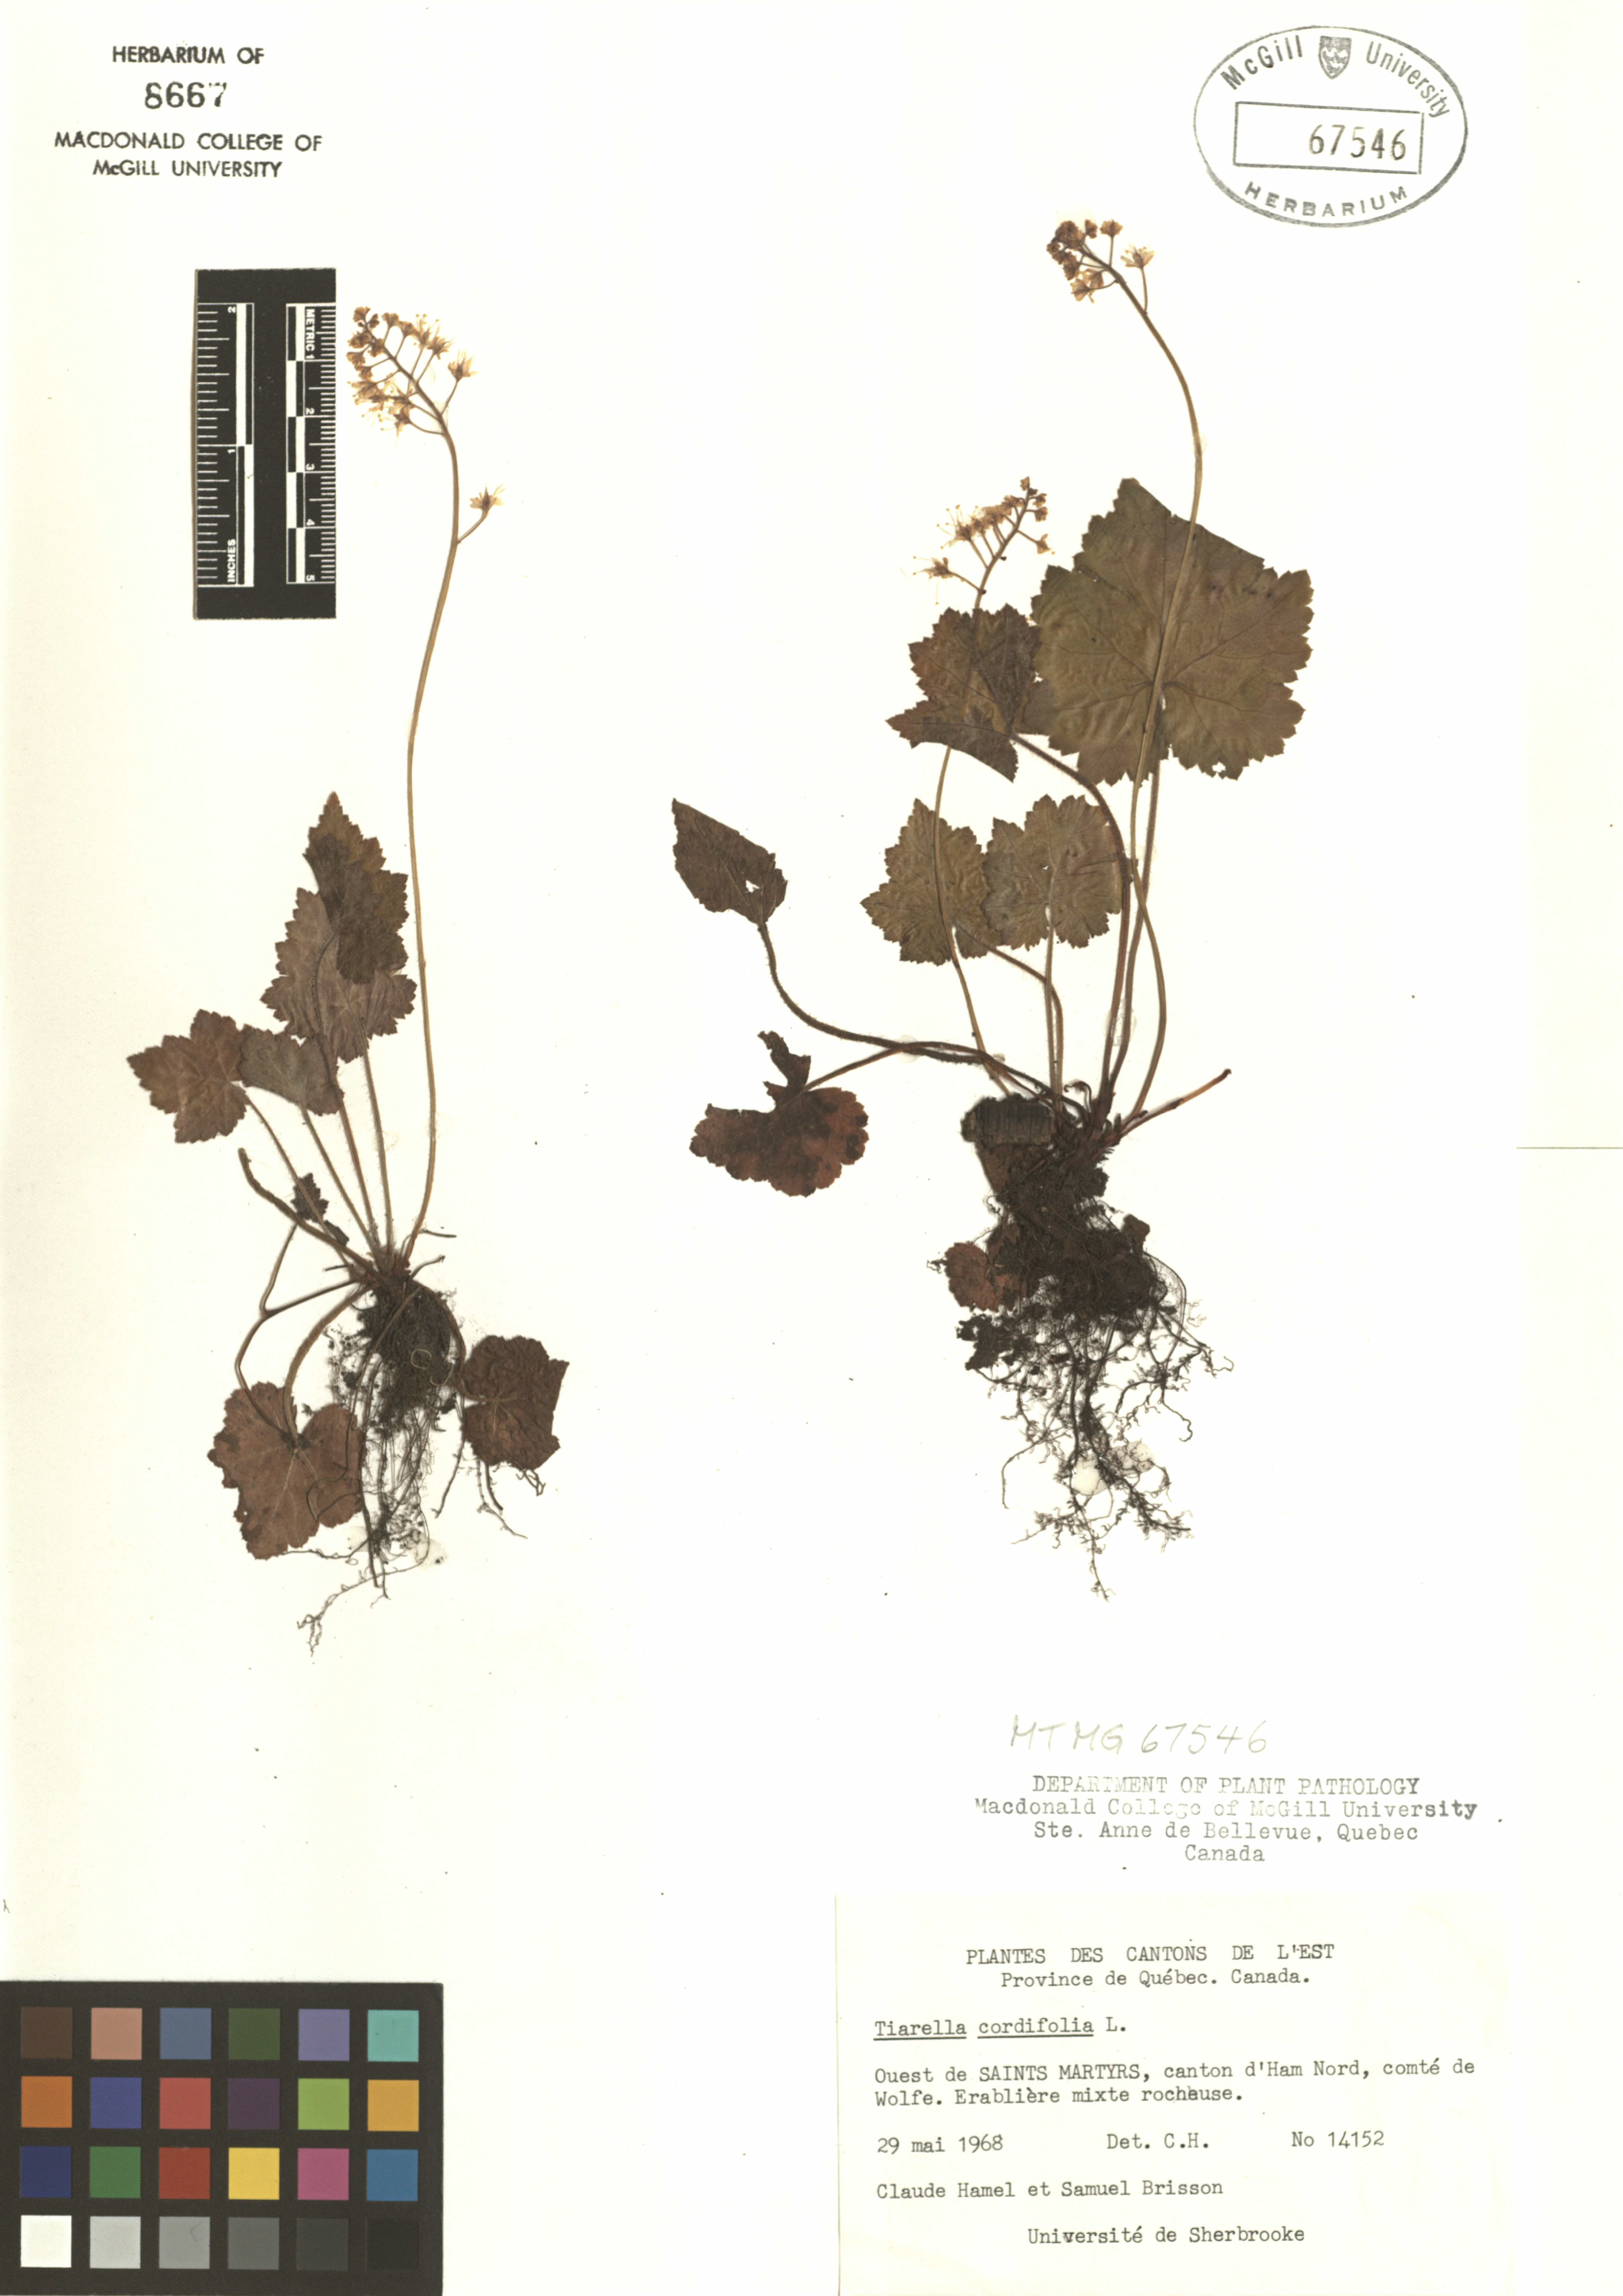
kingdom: Plantae
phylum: Tracheophyta
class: Magnoliopsida
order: Saxifragales
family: Saxifragaceae
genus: Tiarella
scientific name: Tiarella cordifolia
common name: Foamflower
